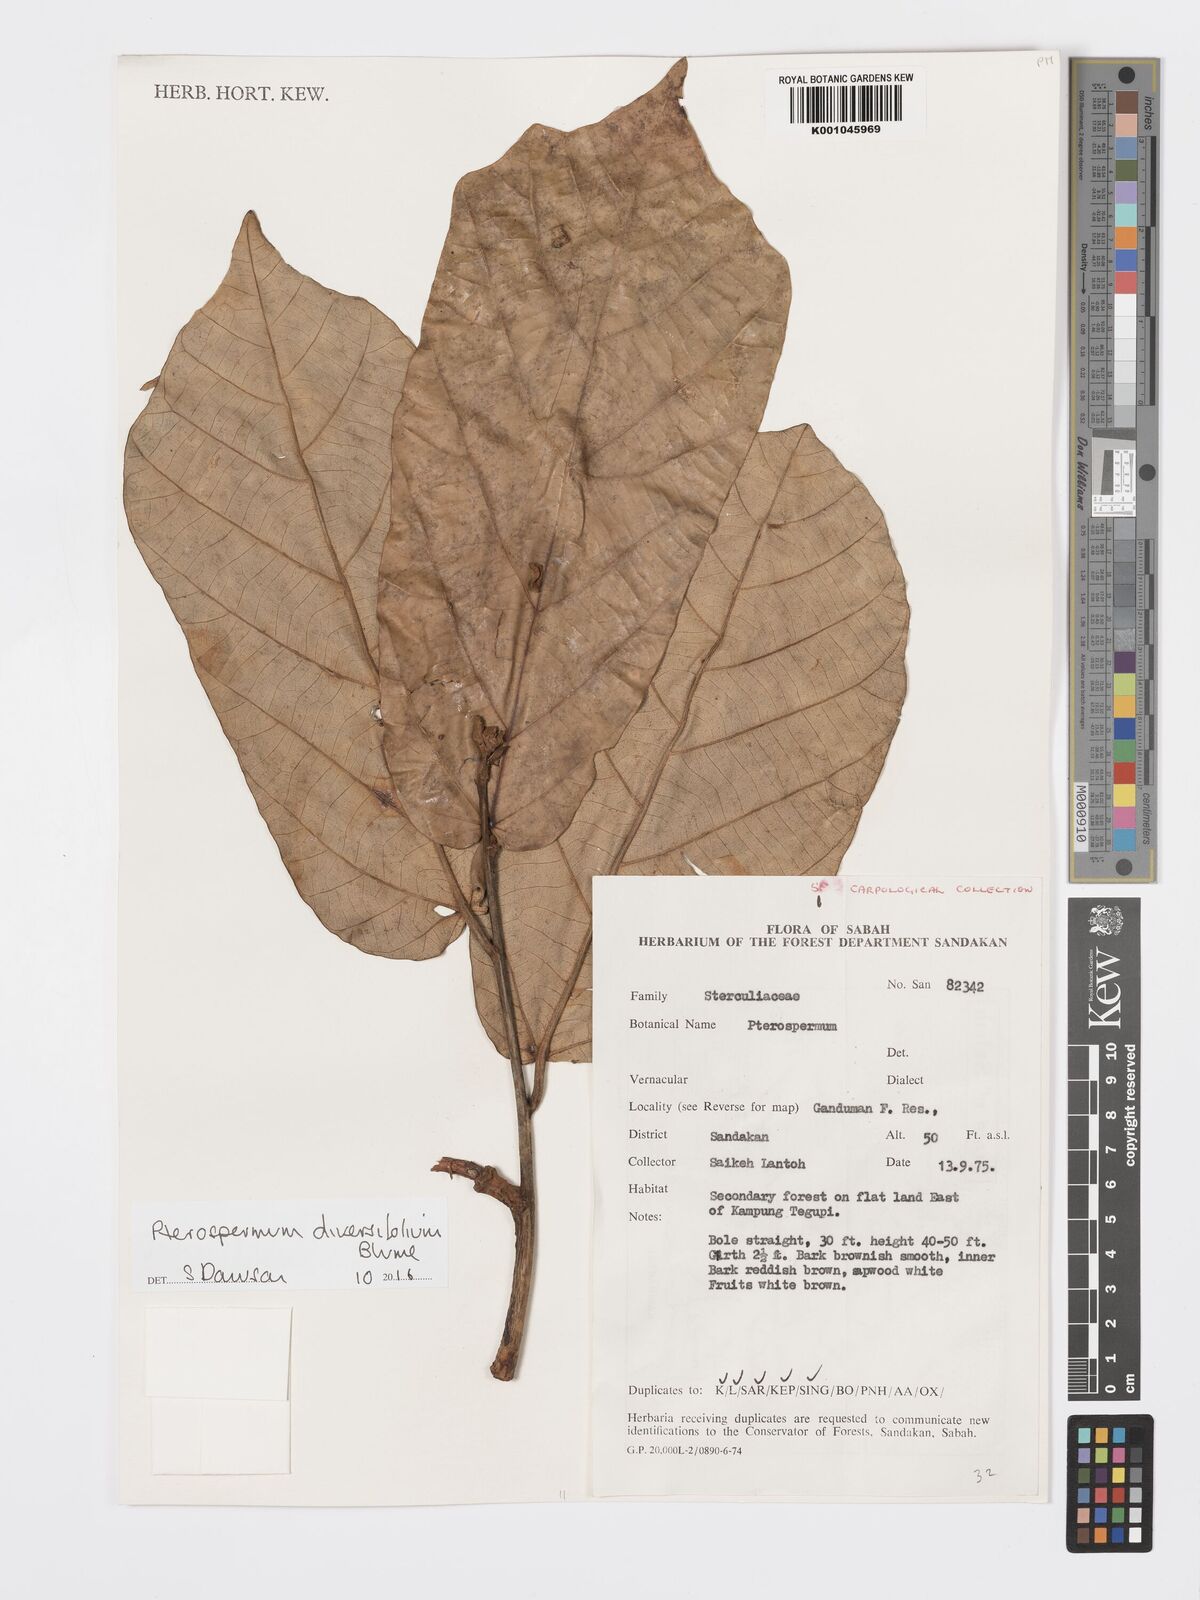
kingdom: Plantae
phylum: Tracheophyta
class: Magnoliopsida
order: Malvales
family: Malvaceae
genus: Pterospermum
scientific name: Pterospermum diversifolium
